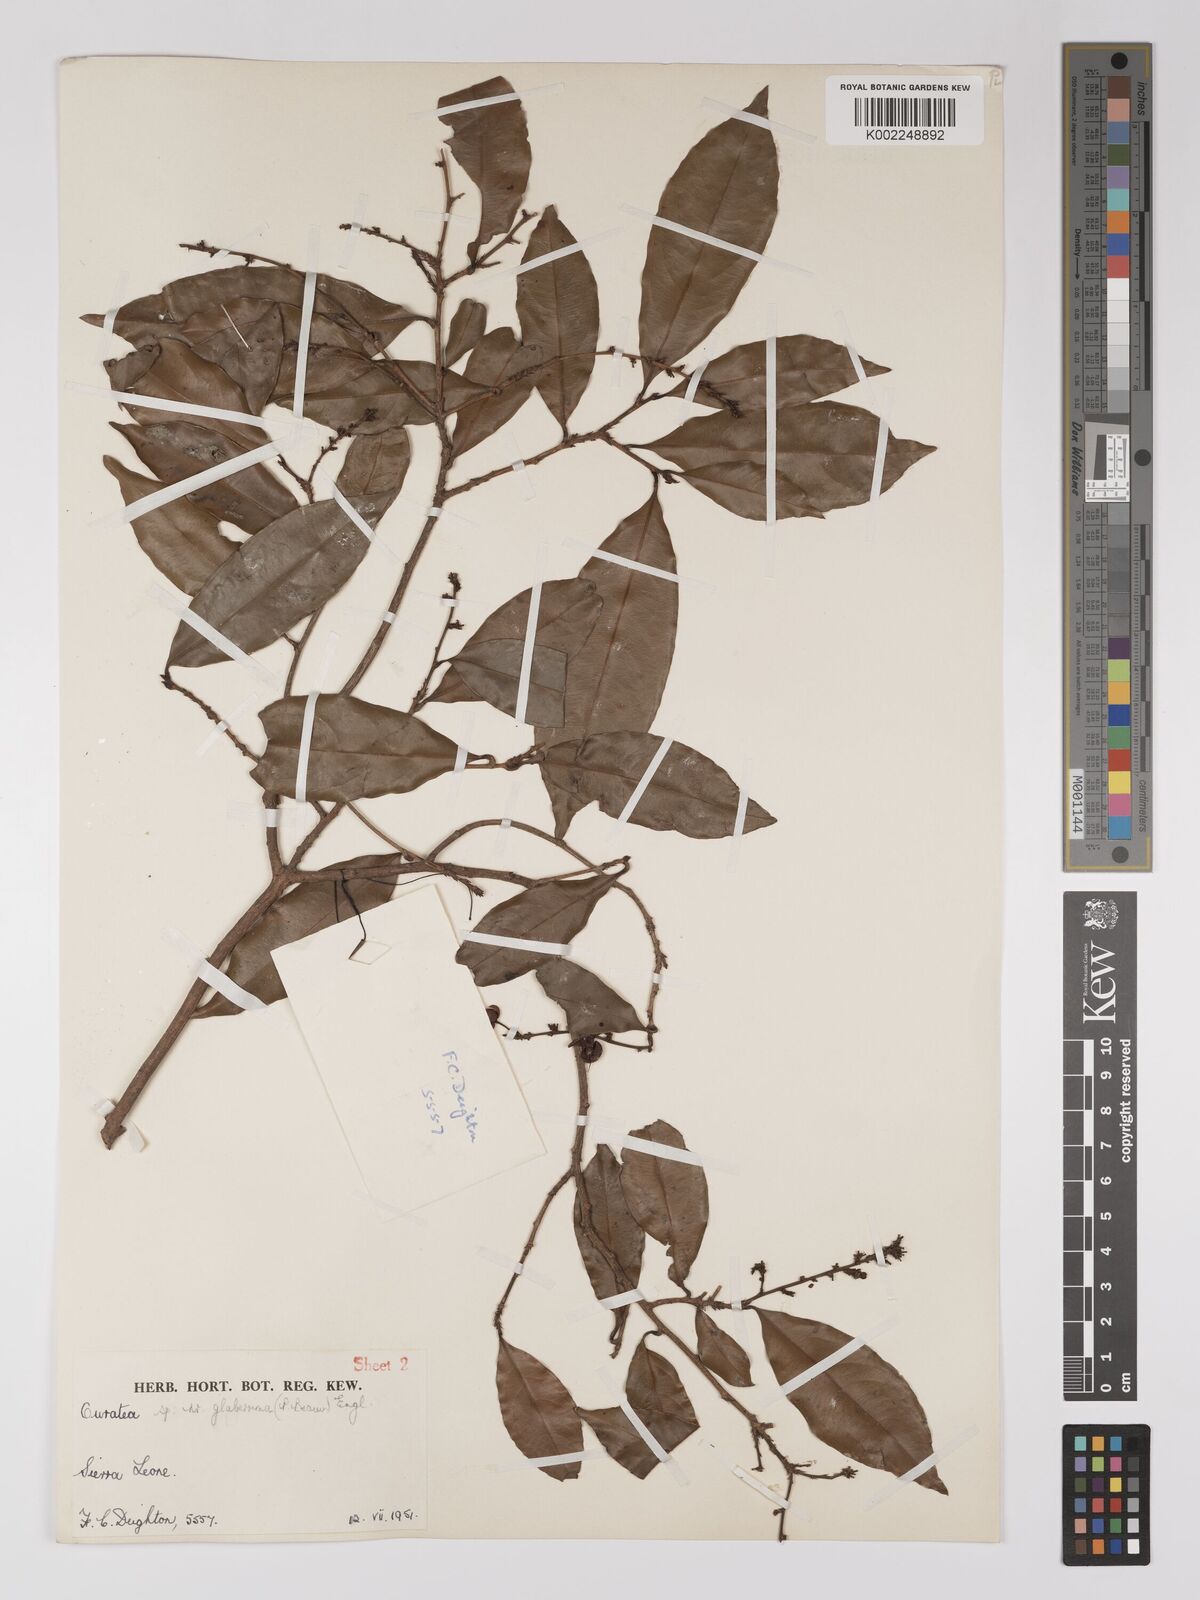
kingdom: Plantae
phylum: Tracheophyta
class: Magnoliopsida
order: Malpighiales
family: Ochnaceae
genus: Campylospermum
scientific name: Campylospermum glaberrimum
